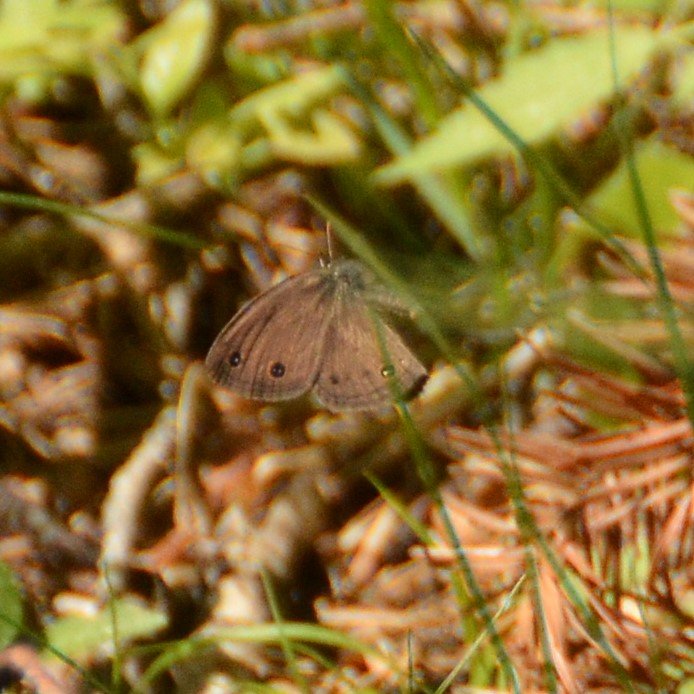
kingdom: Animalia
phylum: Arthropoda
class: Insecta
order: Lepidoptera
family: Nymphalidae
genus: Euptychia
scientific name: Euptychia cymela
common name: Little Wood Satyr
